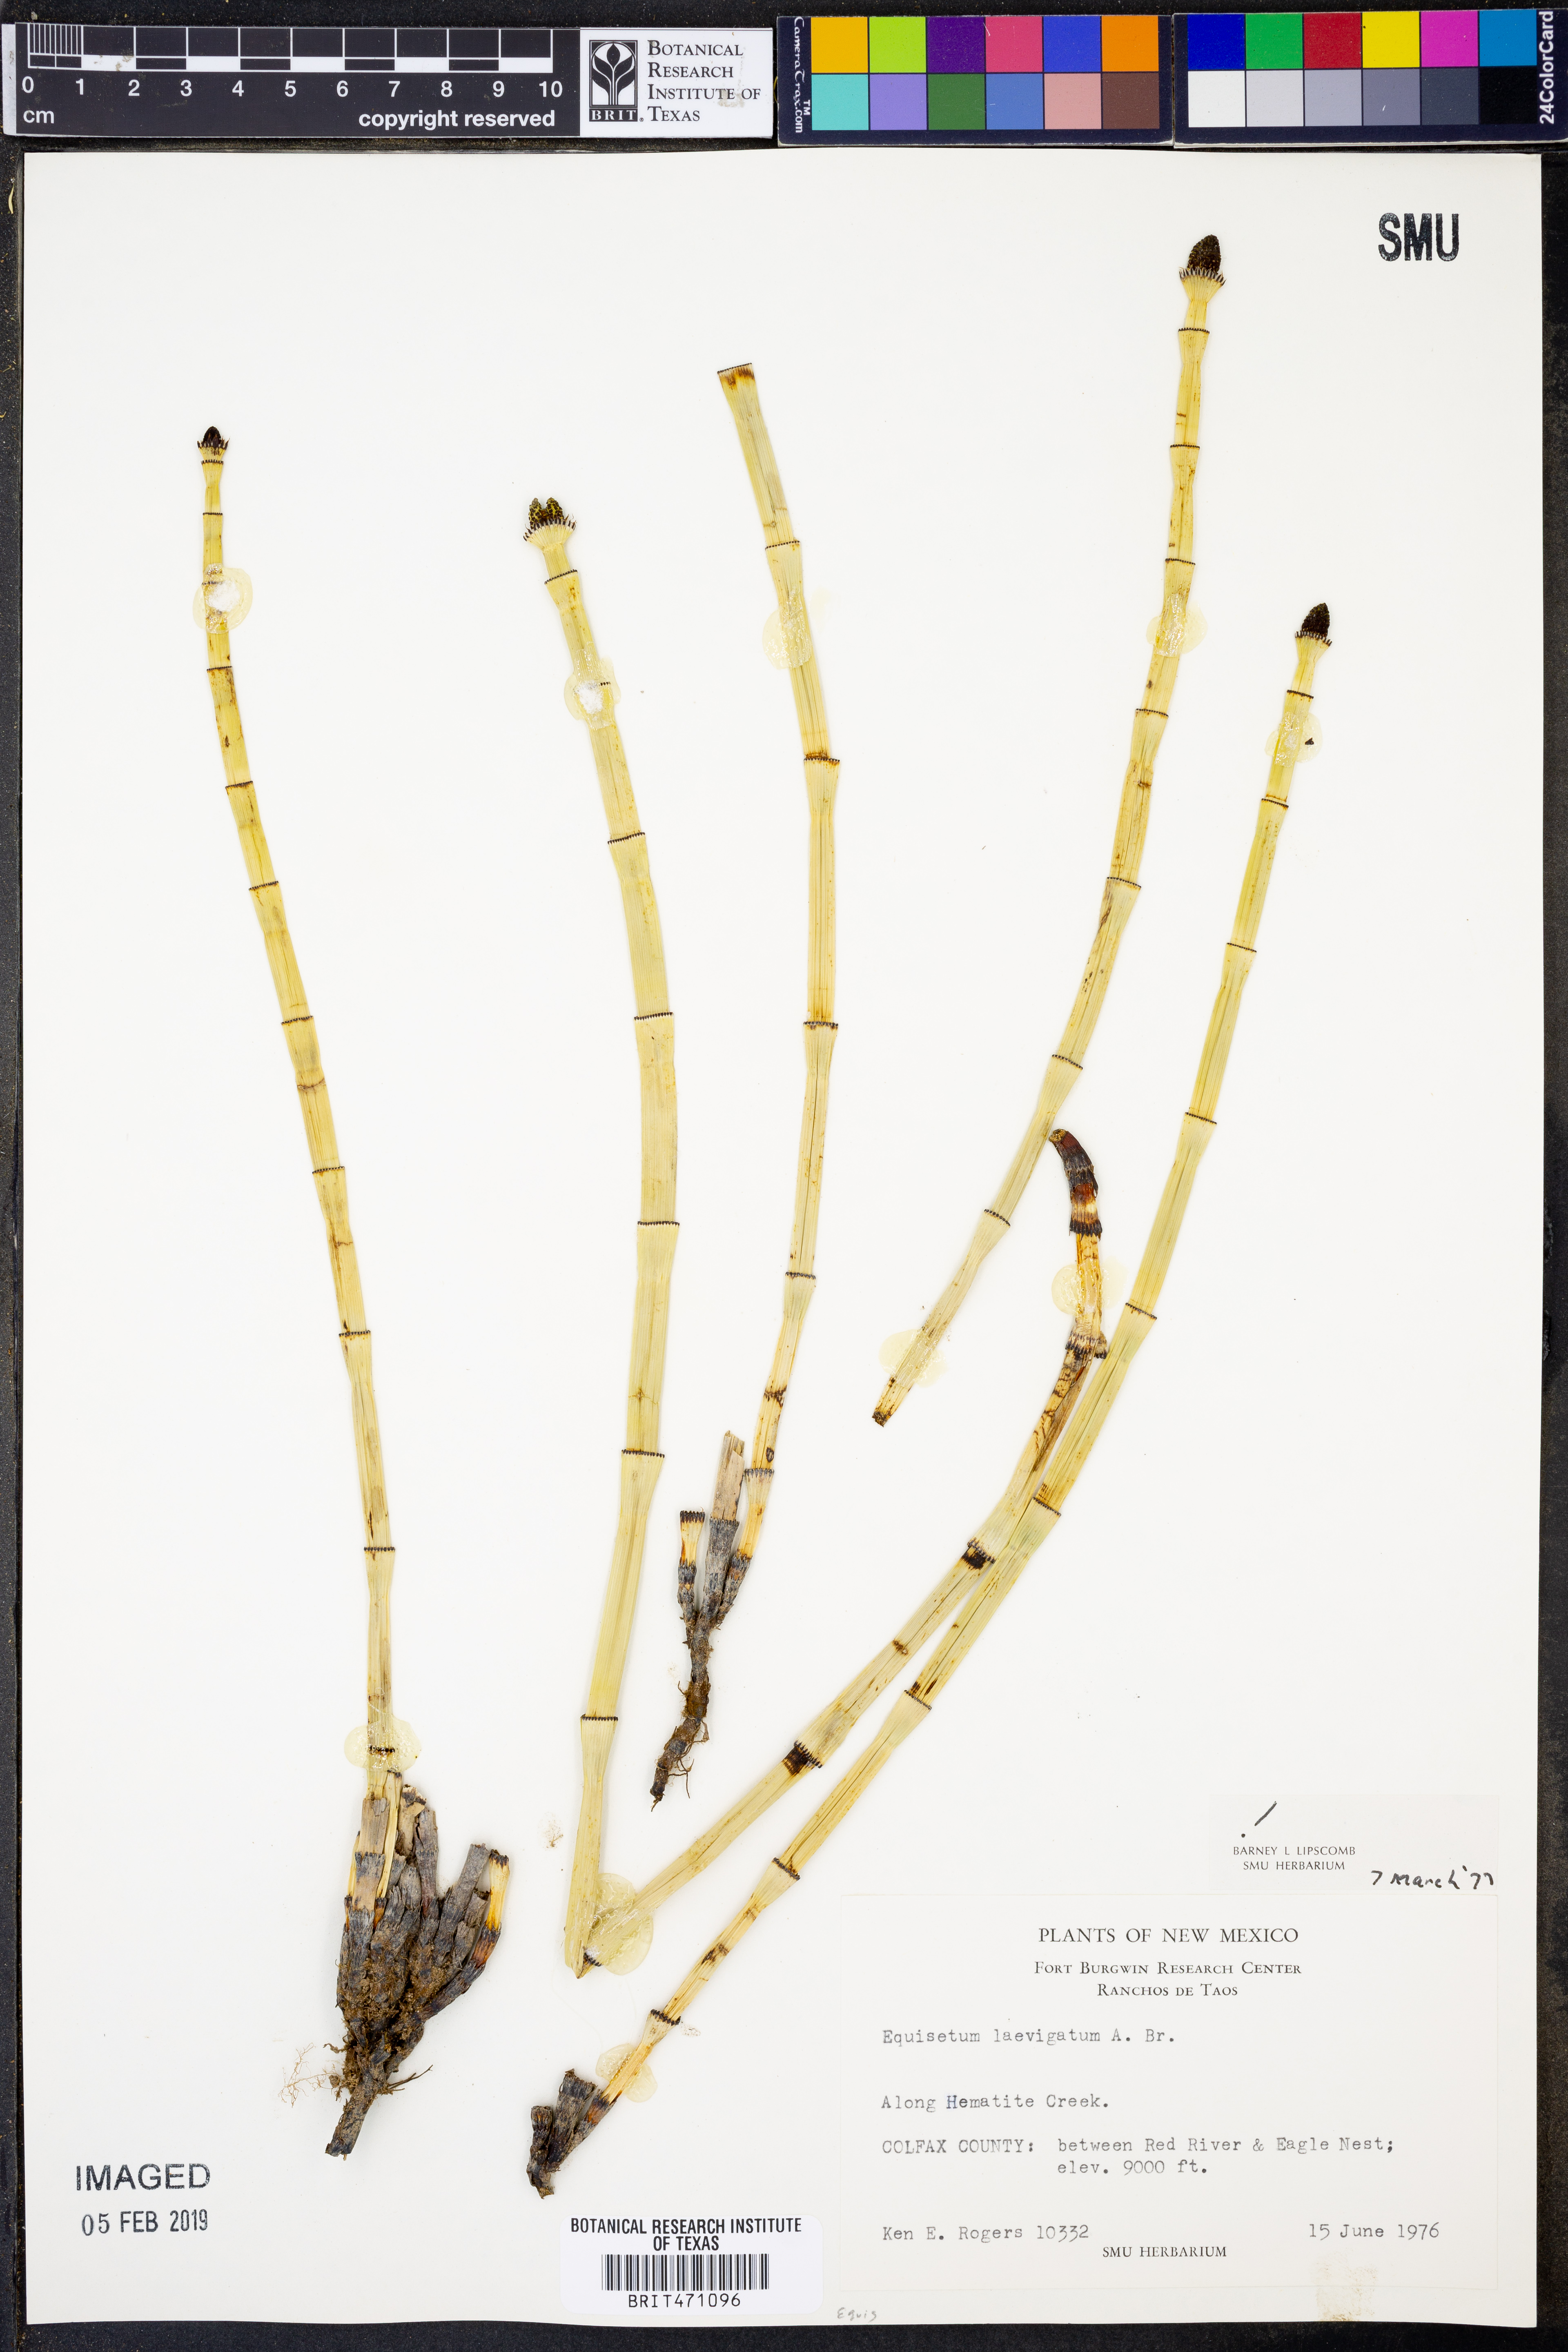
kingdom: Plantae
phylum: Tracheophyta
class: Polypodiopsida
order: Equisetales
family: Equisetaceae
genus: Equisetum
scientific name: Equisetum laevigatum
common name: Smooth scouring-rush
